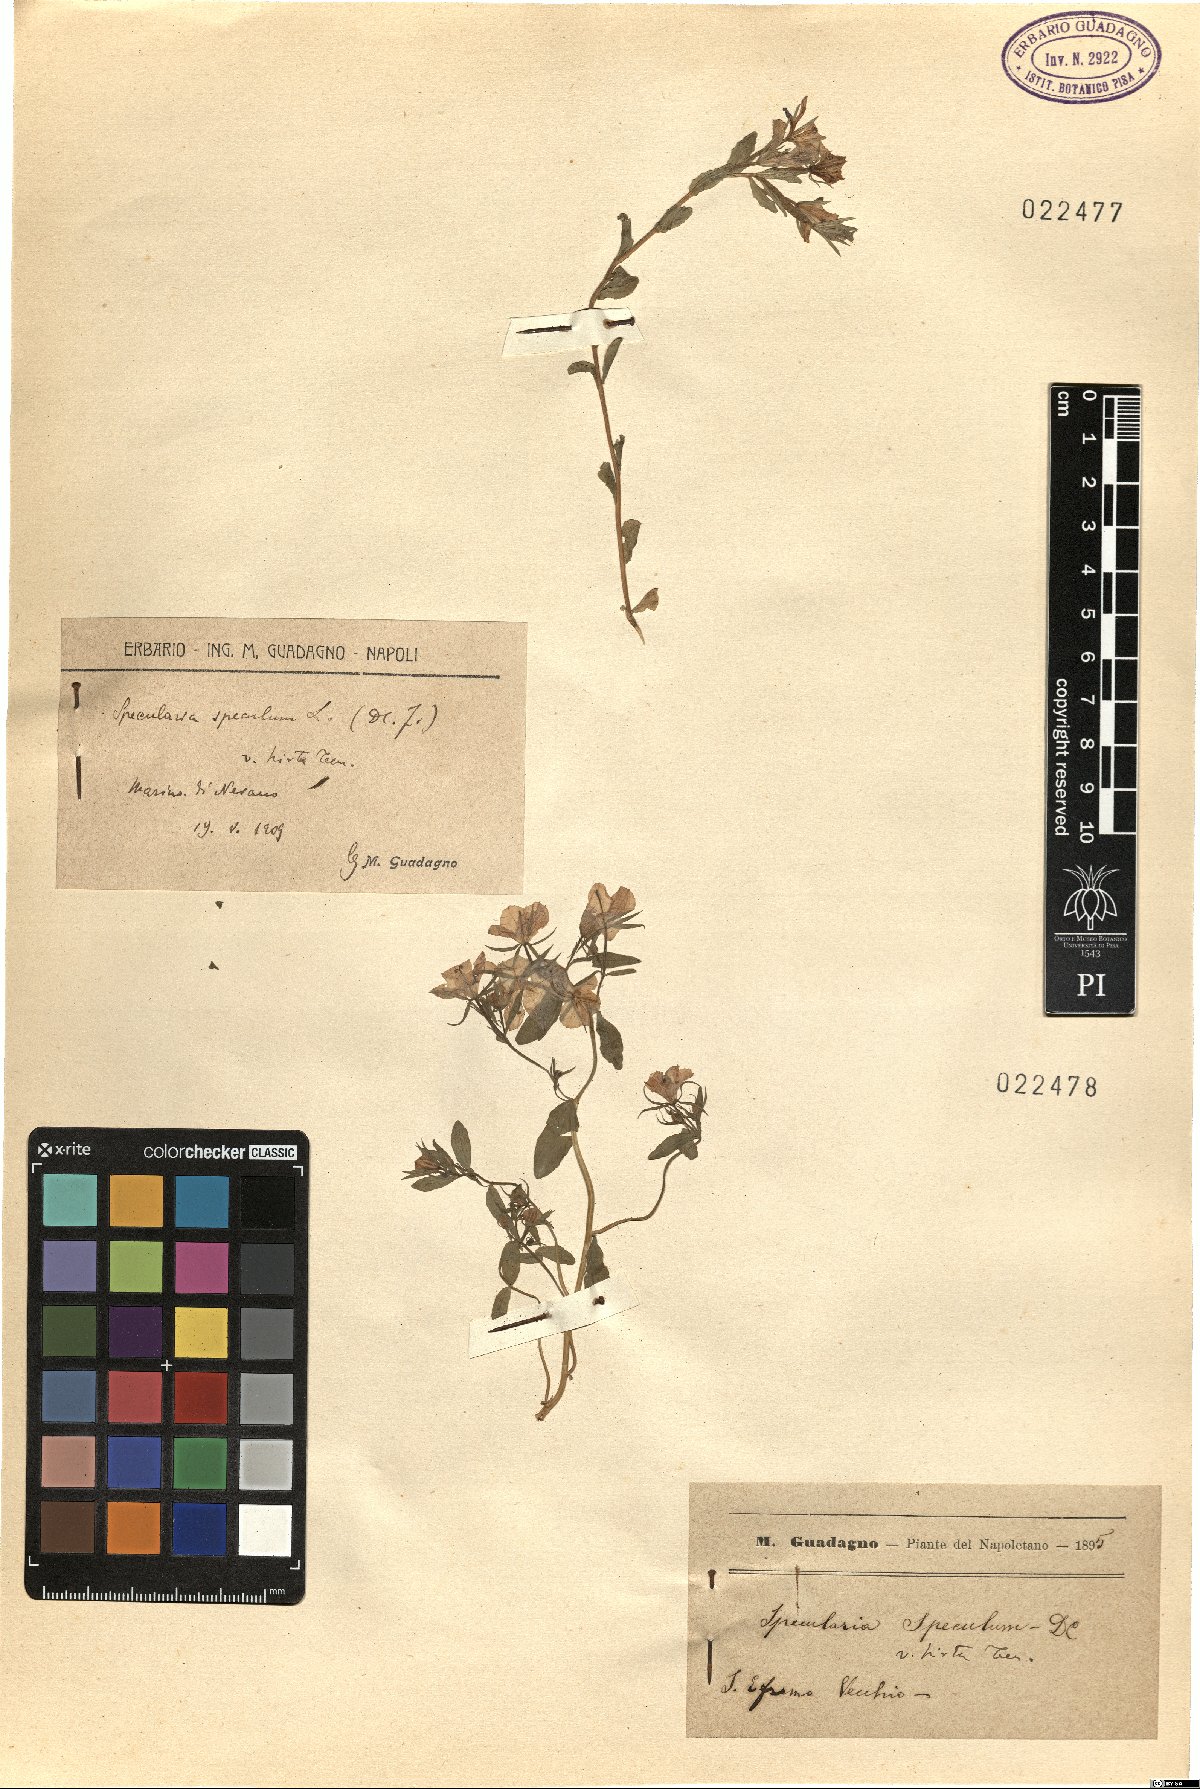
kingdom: Plantae
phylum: Tracheophyta
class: Magnoliopsida
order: Asterales
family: Campanulaceae
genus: Legousia
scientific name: Legousia speculum-veneris
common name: Large venus's-looking-glass
